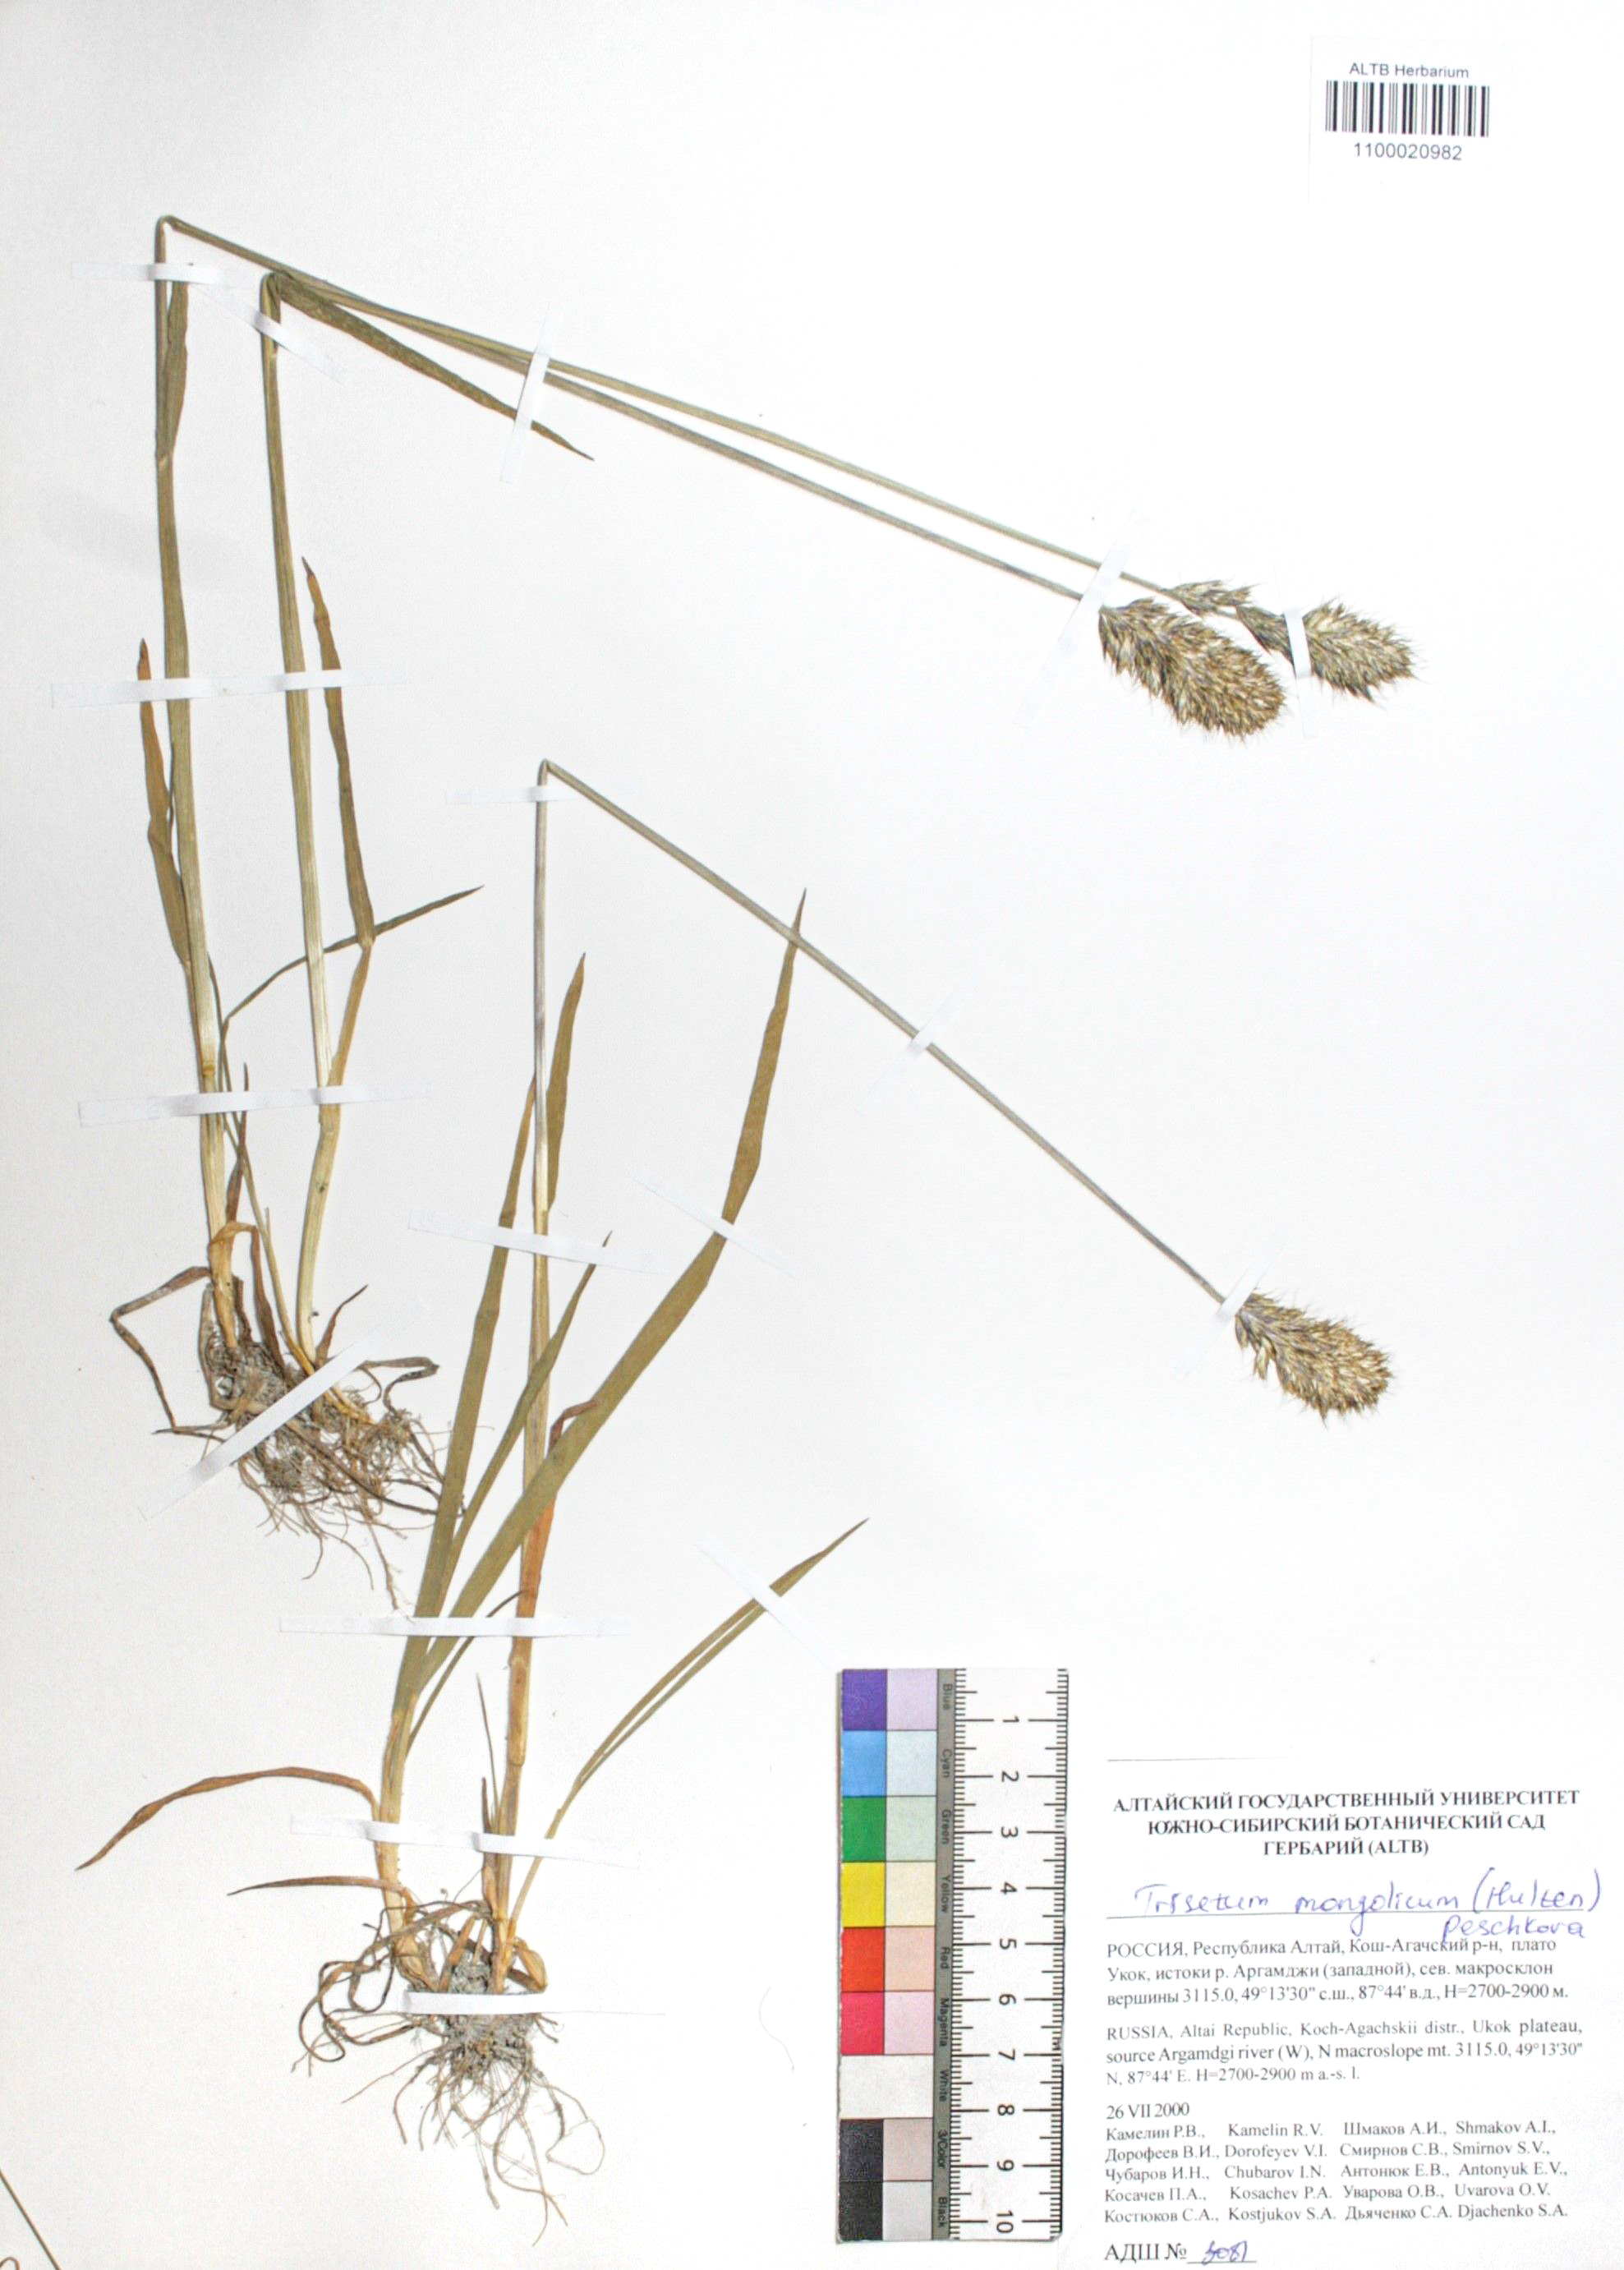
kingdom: Plantae
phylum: Tracheophyta
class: Liliopsida
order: Poales
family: Poaceae
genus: Koeleria
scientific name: Koeleria spicata
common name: Mountain trisetum
